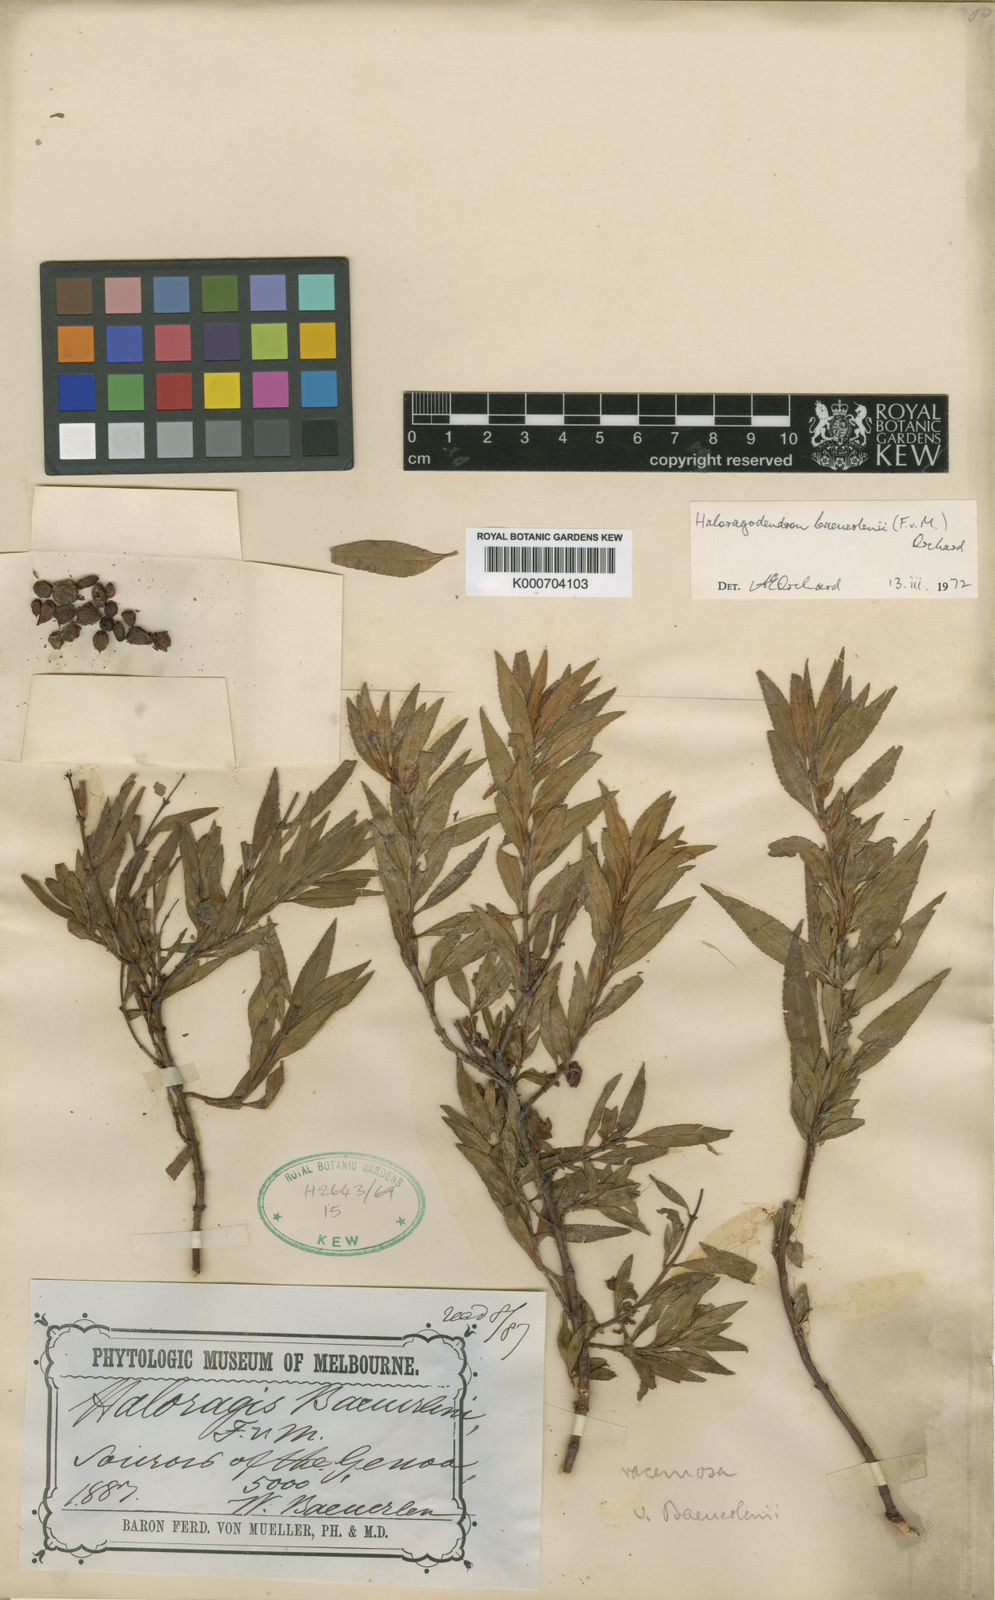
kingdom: Plantae
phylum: Tracheophyta
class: Magnoliopsida
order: Saxifragales
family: Haloragaceae
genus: Glischrocaryon
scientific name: Glischrocaryon baeuerlenii
